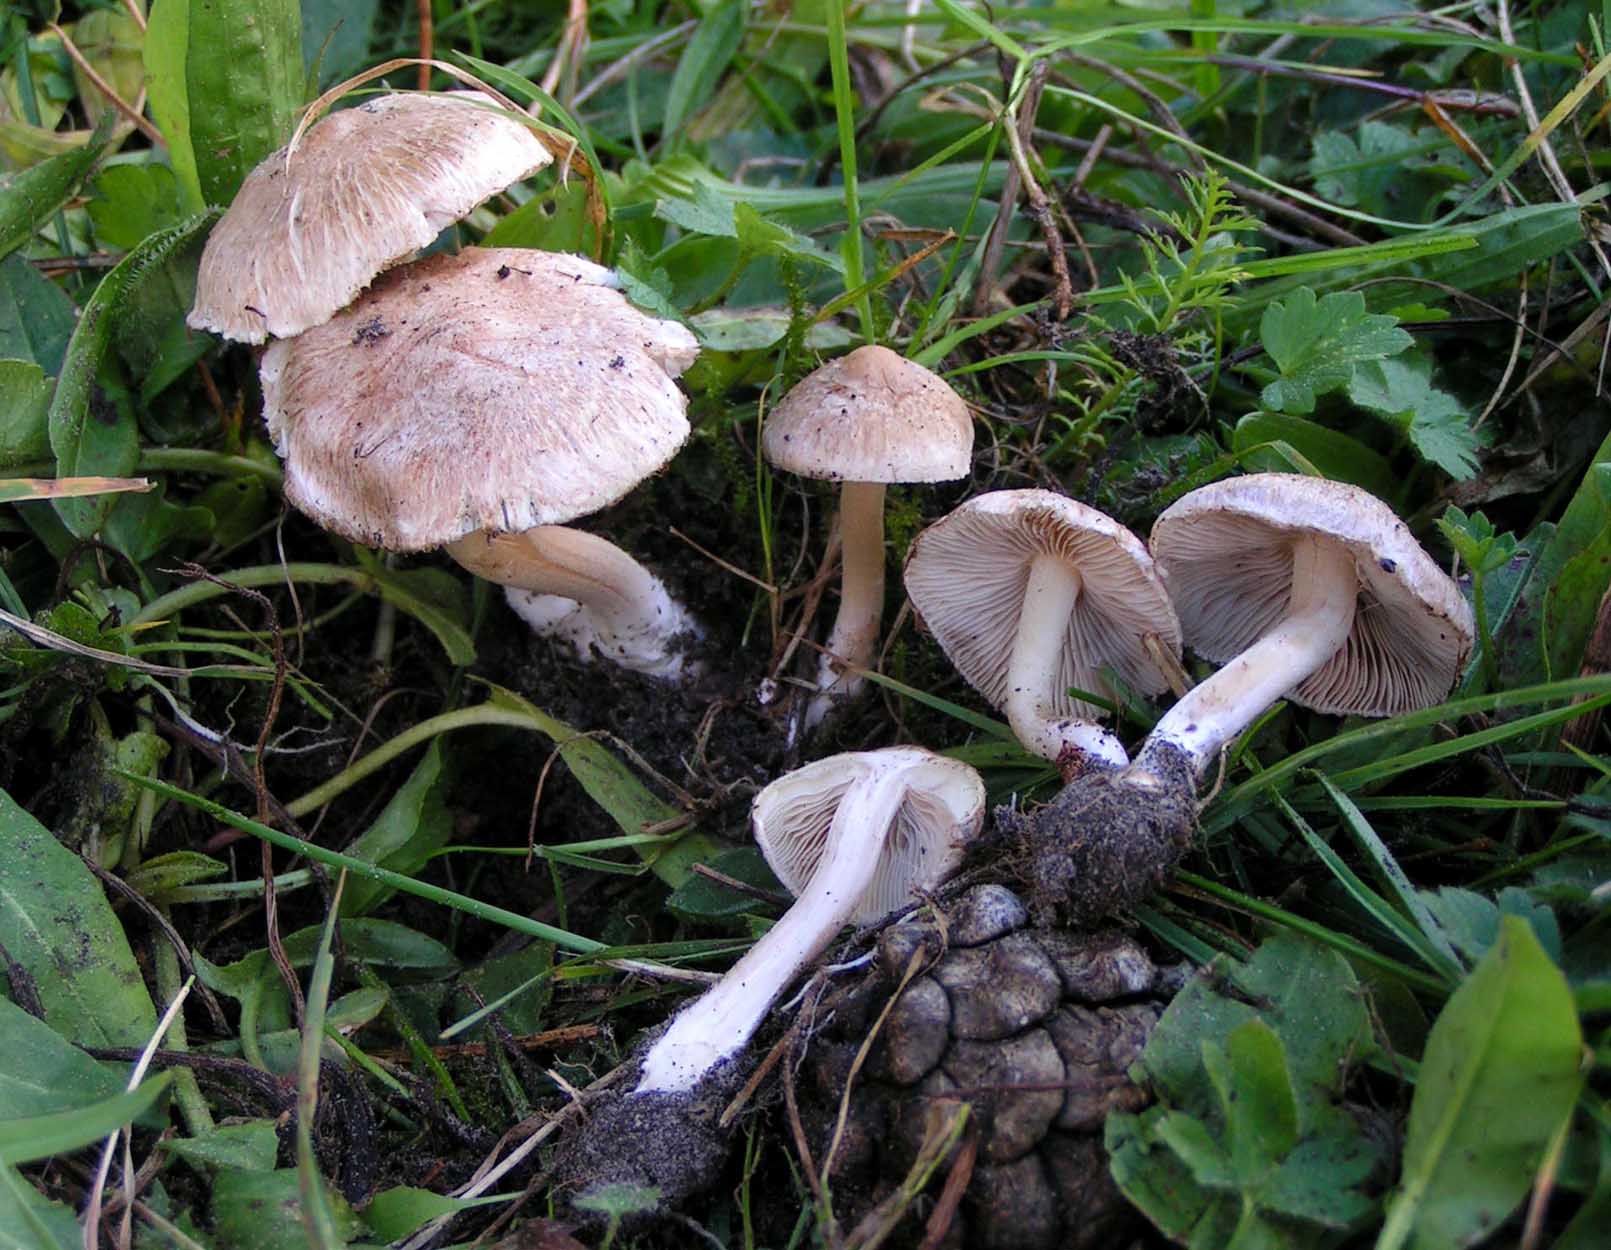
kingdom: Fungi
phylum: Basidiomycota
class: Agaricomycetes
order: Agaricales
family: Inocybaceae
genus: Inocybe
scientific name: Inocybe
